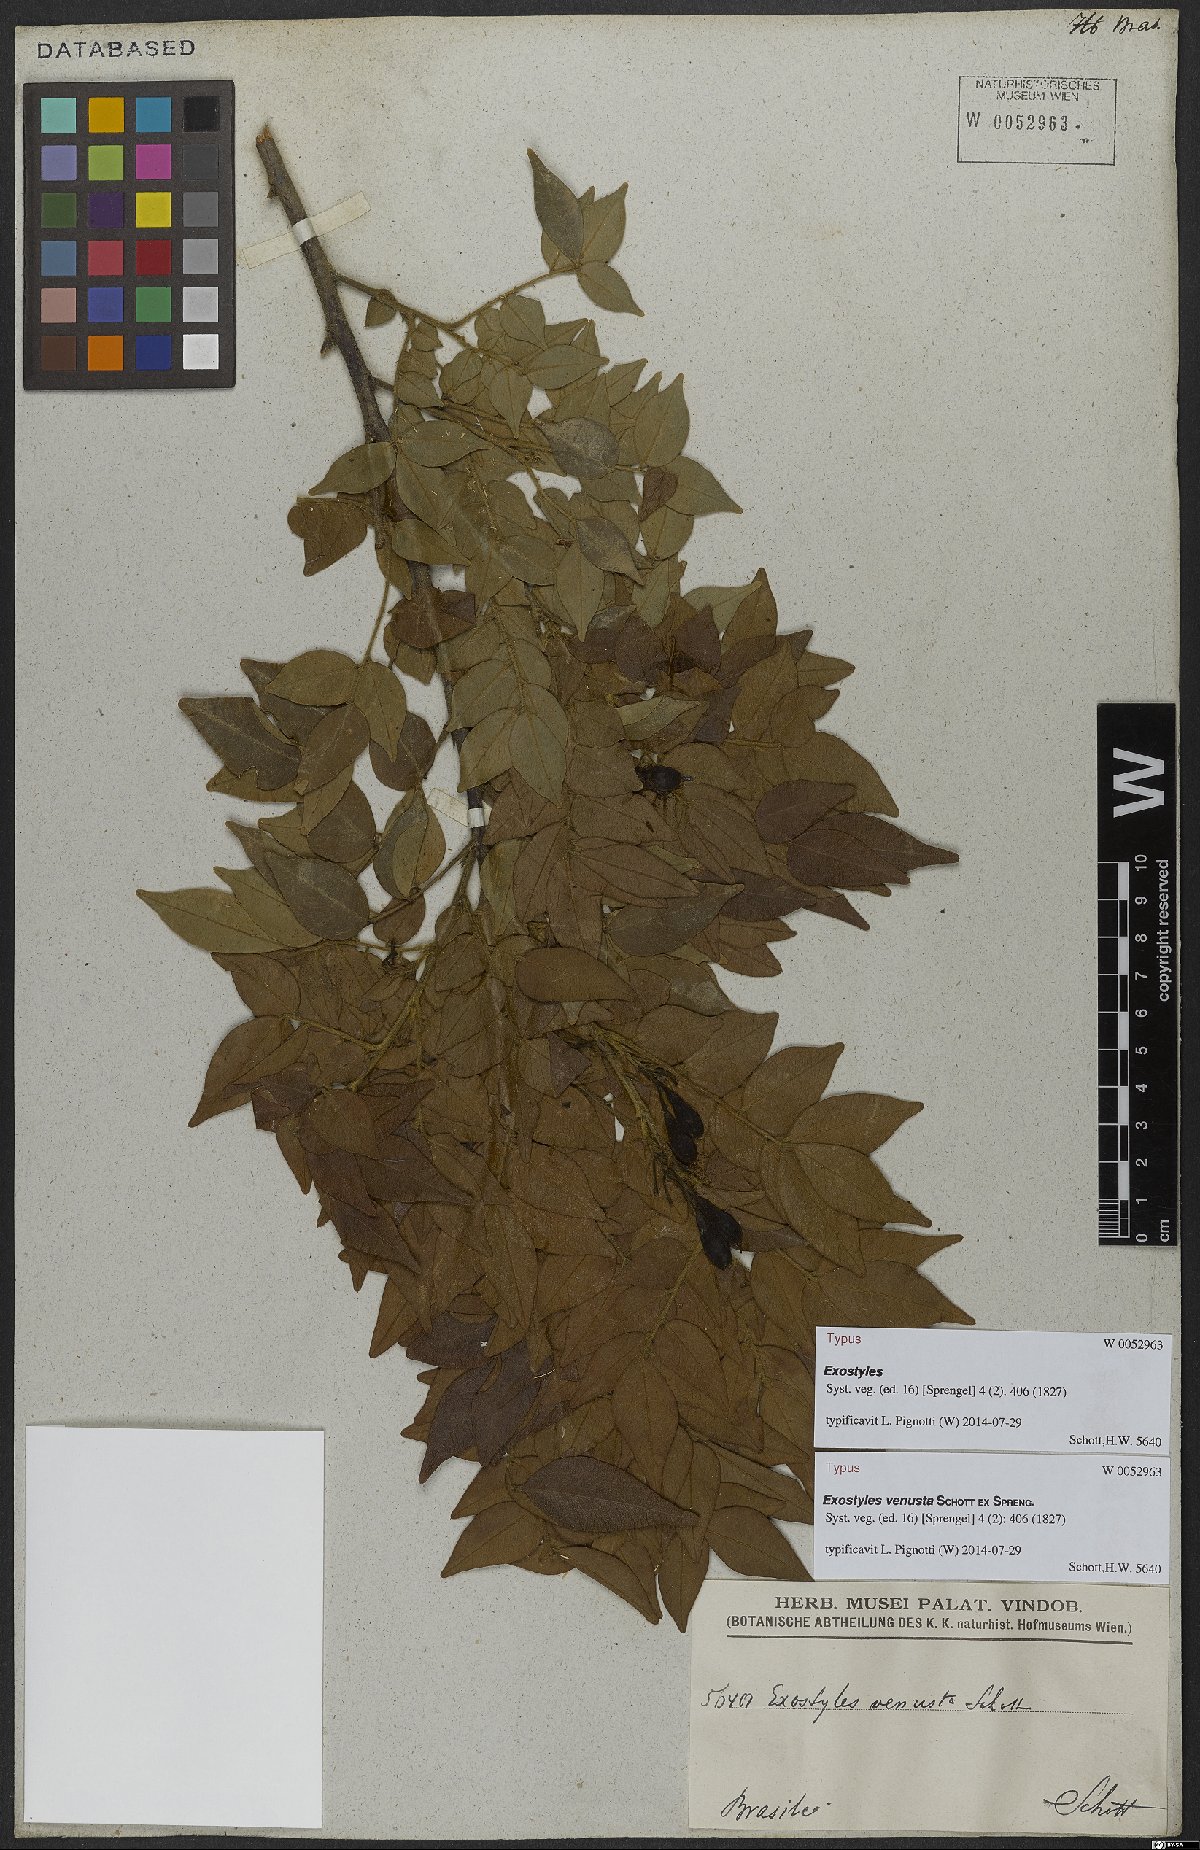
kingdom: Plantae
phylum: Tracheophyta
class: Magnoliopsida
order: Fabales
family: Fabaceae
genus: Exostyles
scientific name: Exostyles venusta
